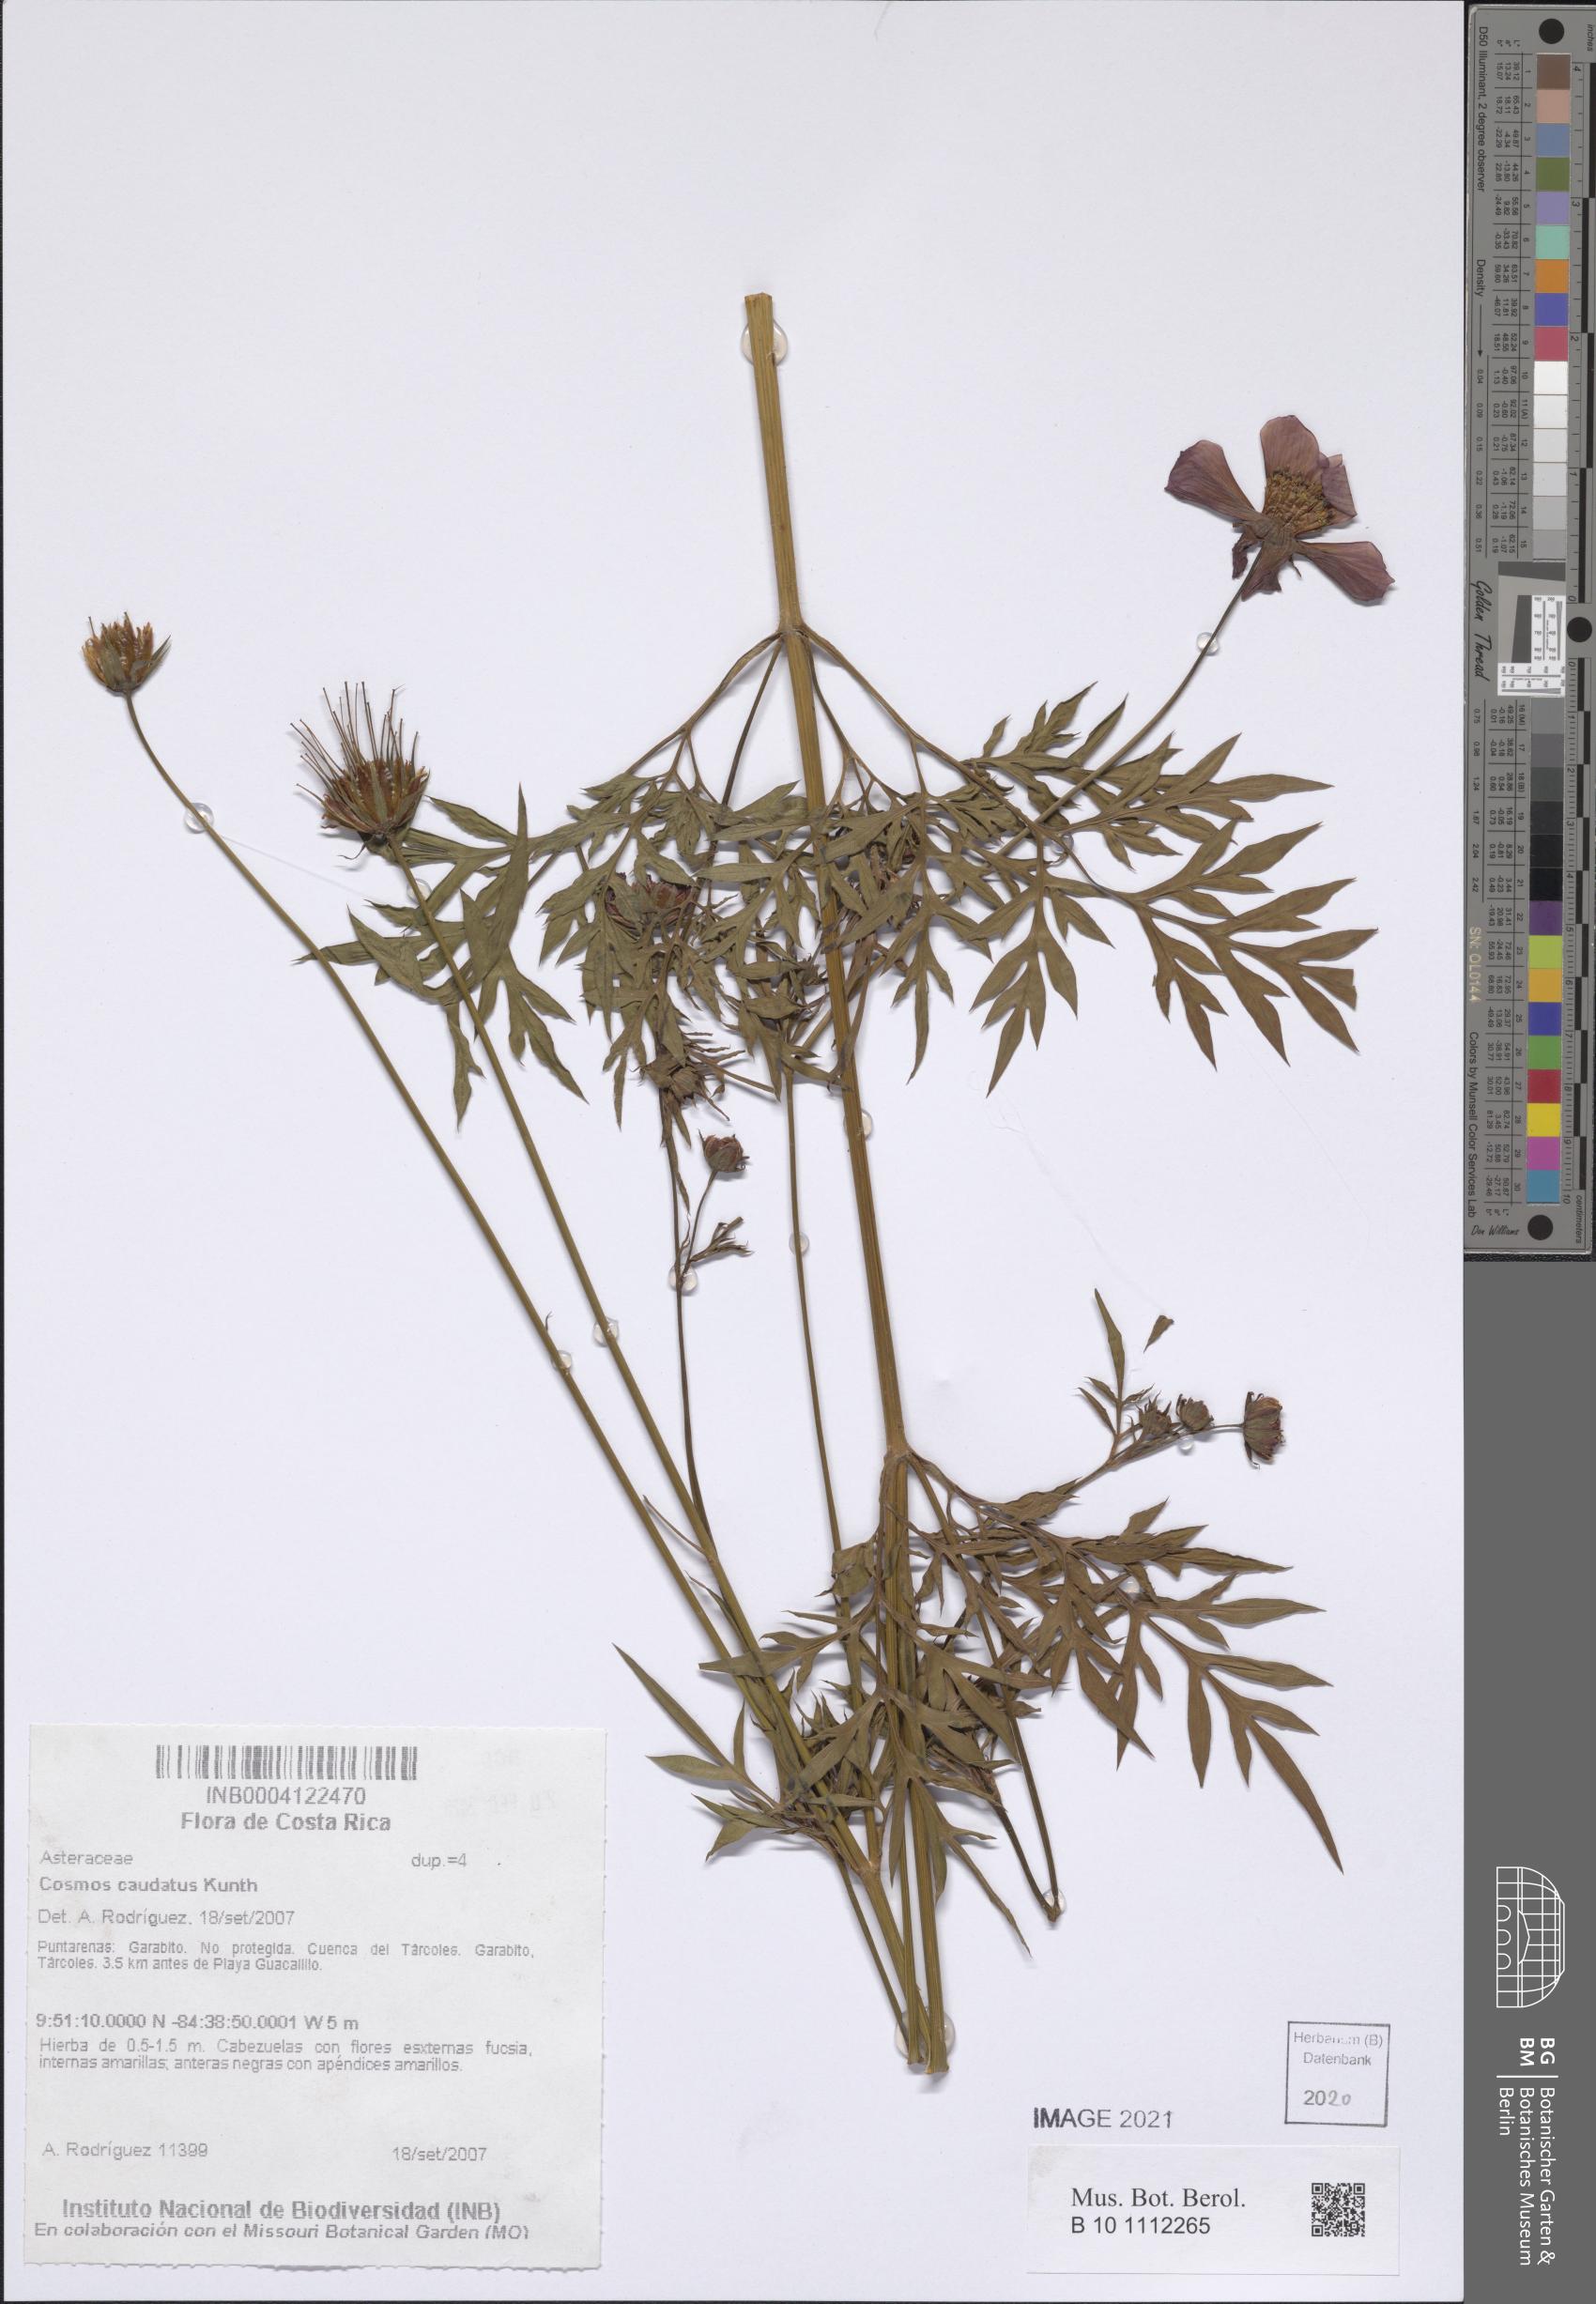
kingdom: Plantae
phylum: Tracheophyta
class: Magnoliopsida
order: Asterales
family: Asteraceae
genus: Cosmos
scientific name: Cosmos caudatus
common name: Wild cosmos
